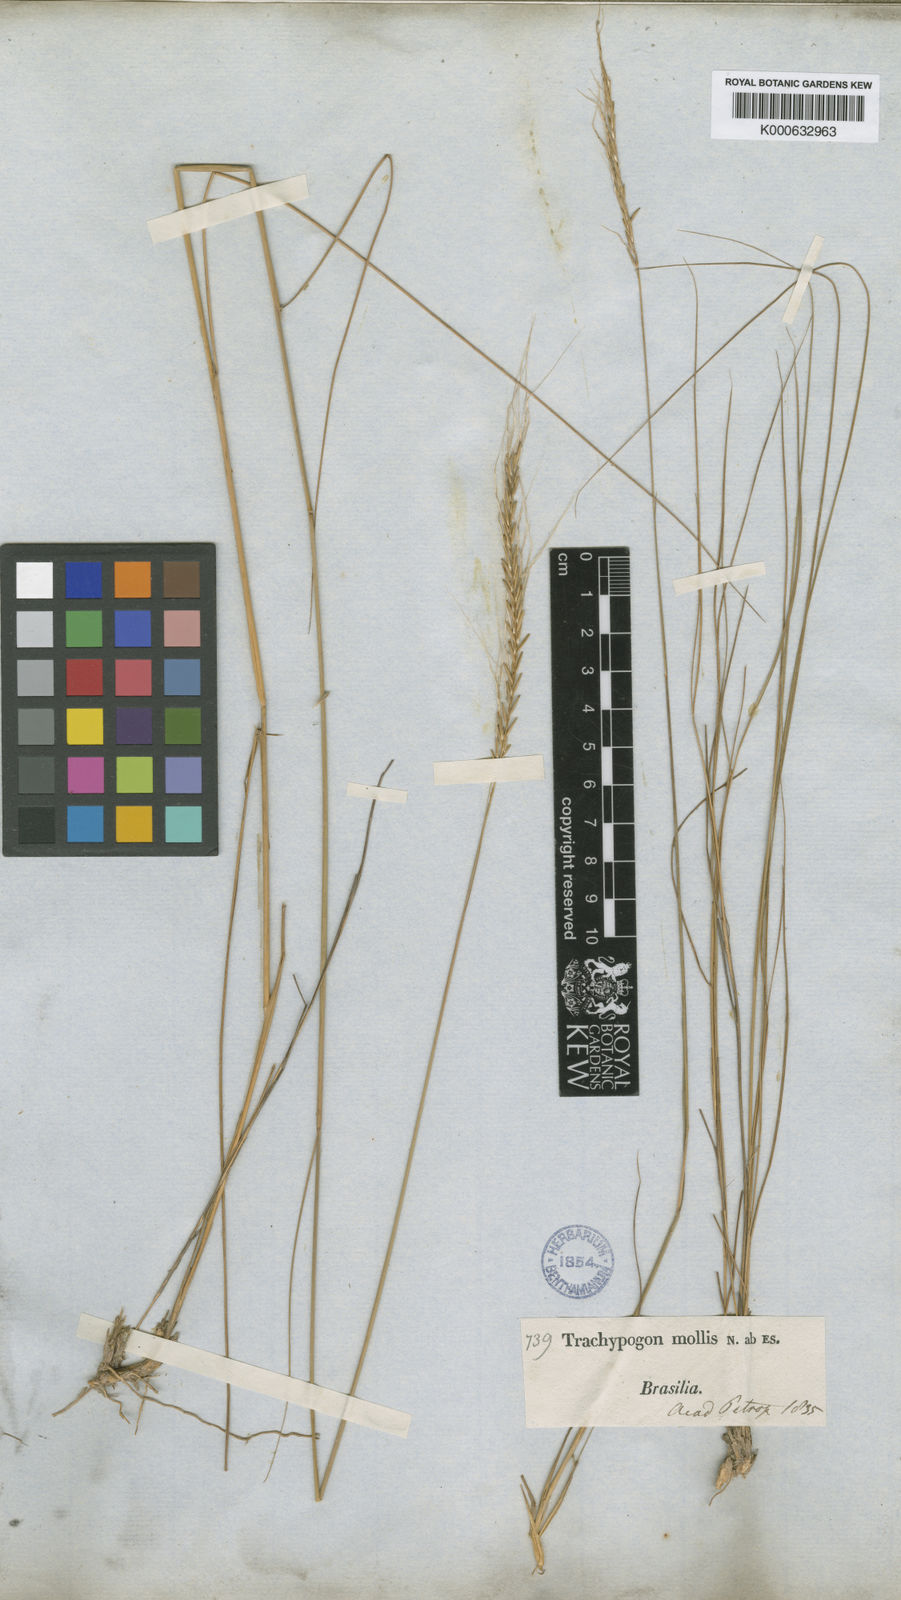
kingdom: Plantae
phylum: Tracheophyta
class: Liliopsida
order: Poales
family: Poaceae
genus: Trachypogon
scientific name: Trachypogon spicatus
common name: Crinkle-awn
